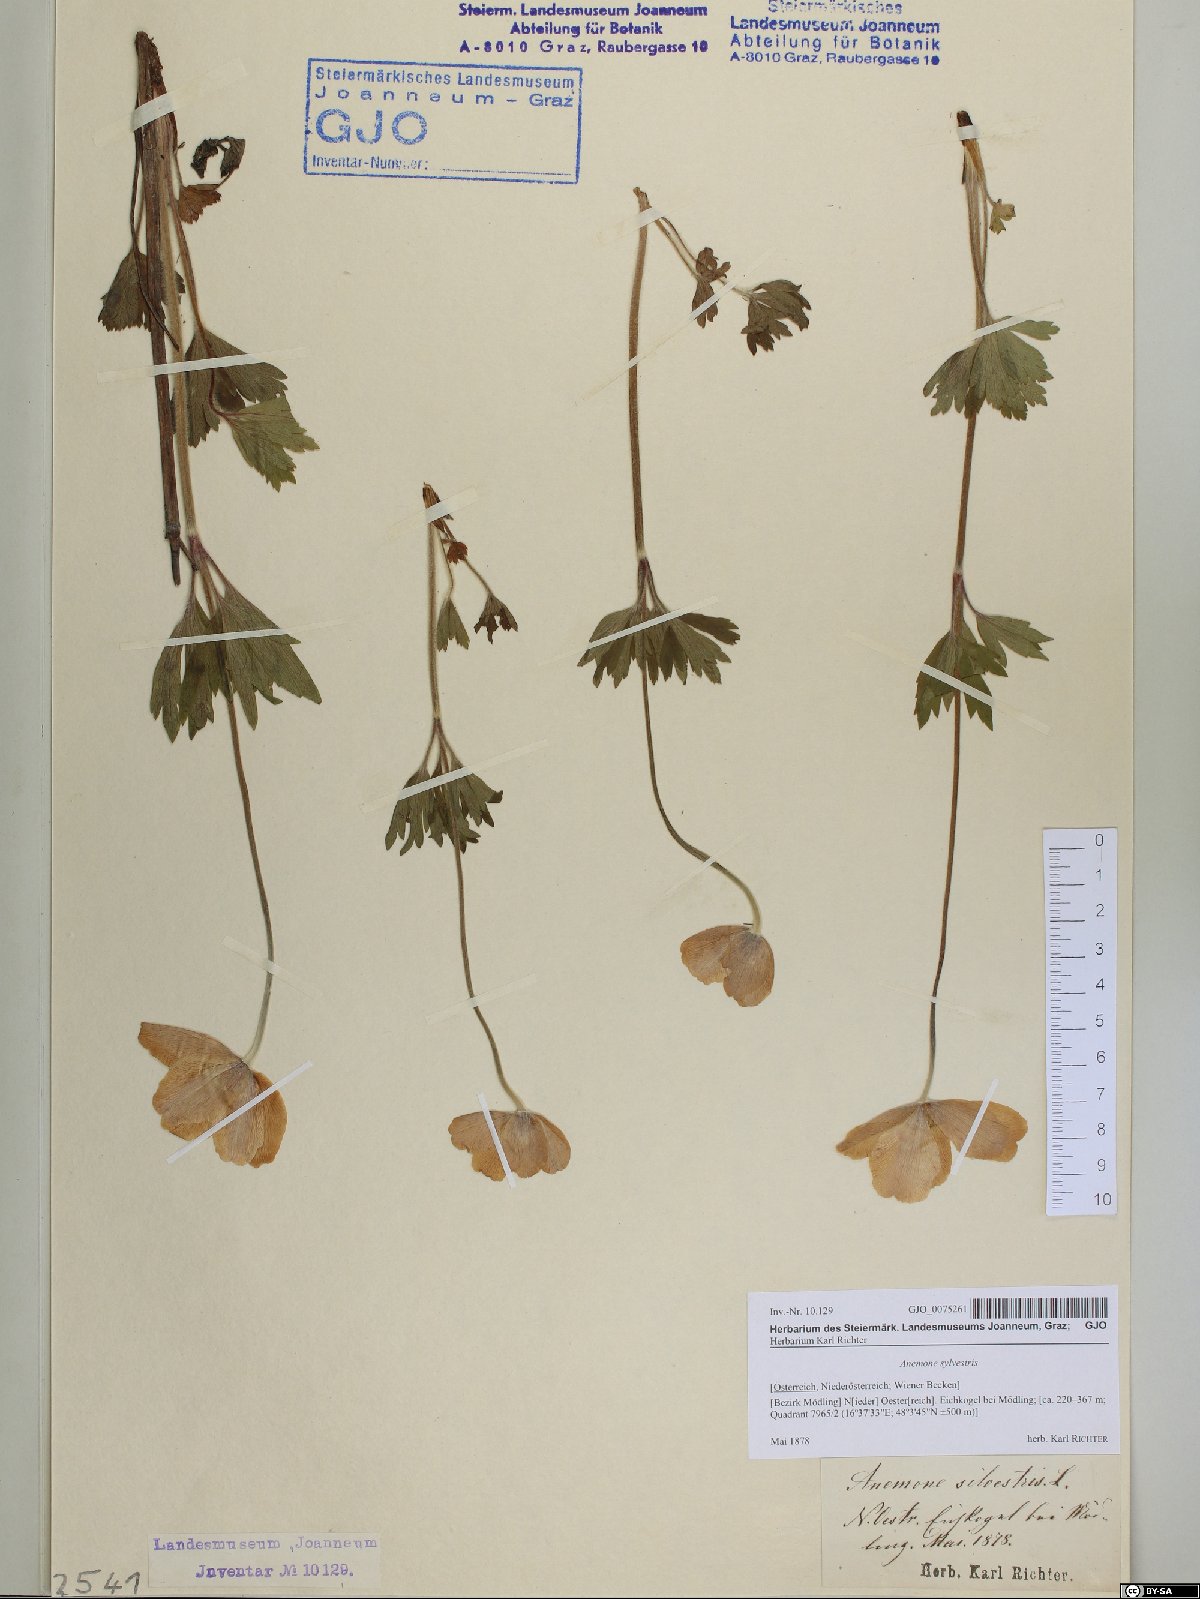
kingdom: Plantae
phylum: Tracheophyta
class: Magnoliopsida
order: Ranunculales
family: Ranunculaceae
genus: Anemone
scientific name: Anemone sylvestris
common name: Snowdrop anemone
